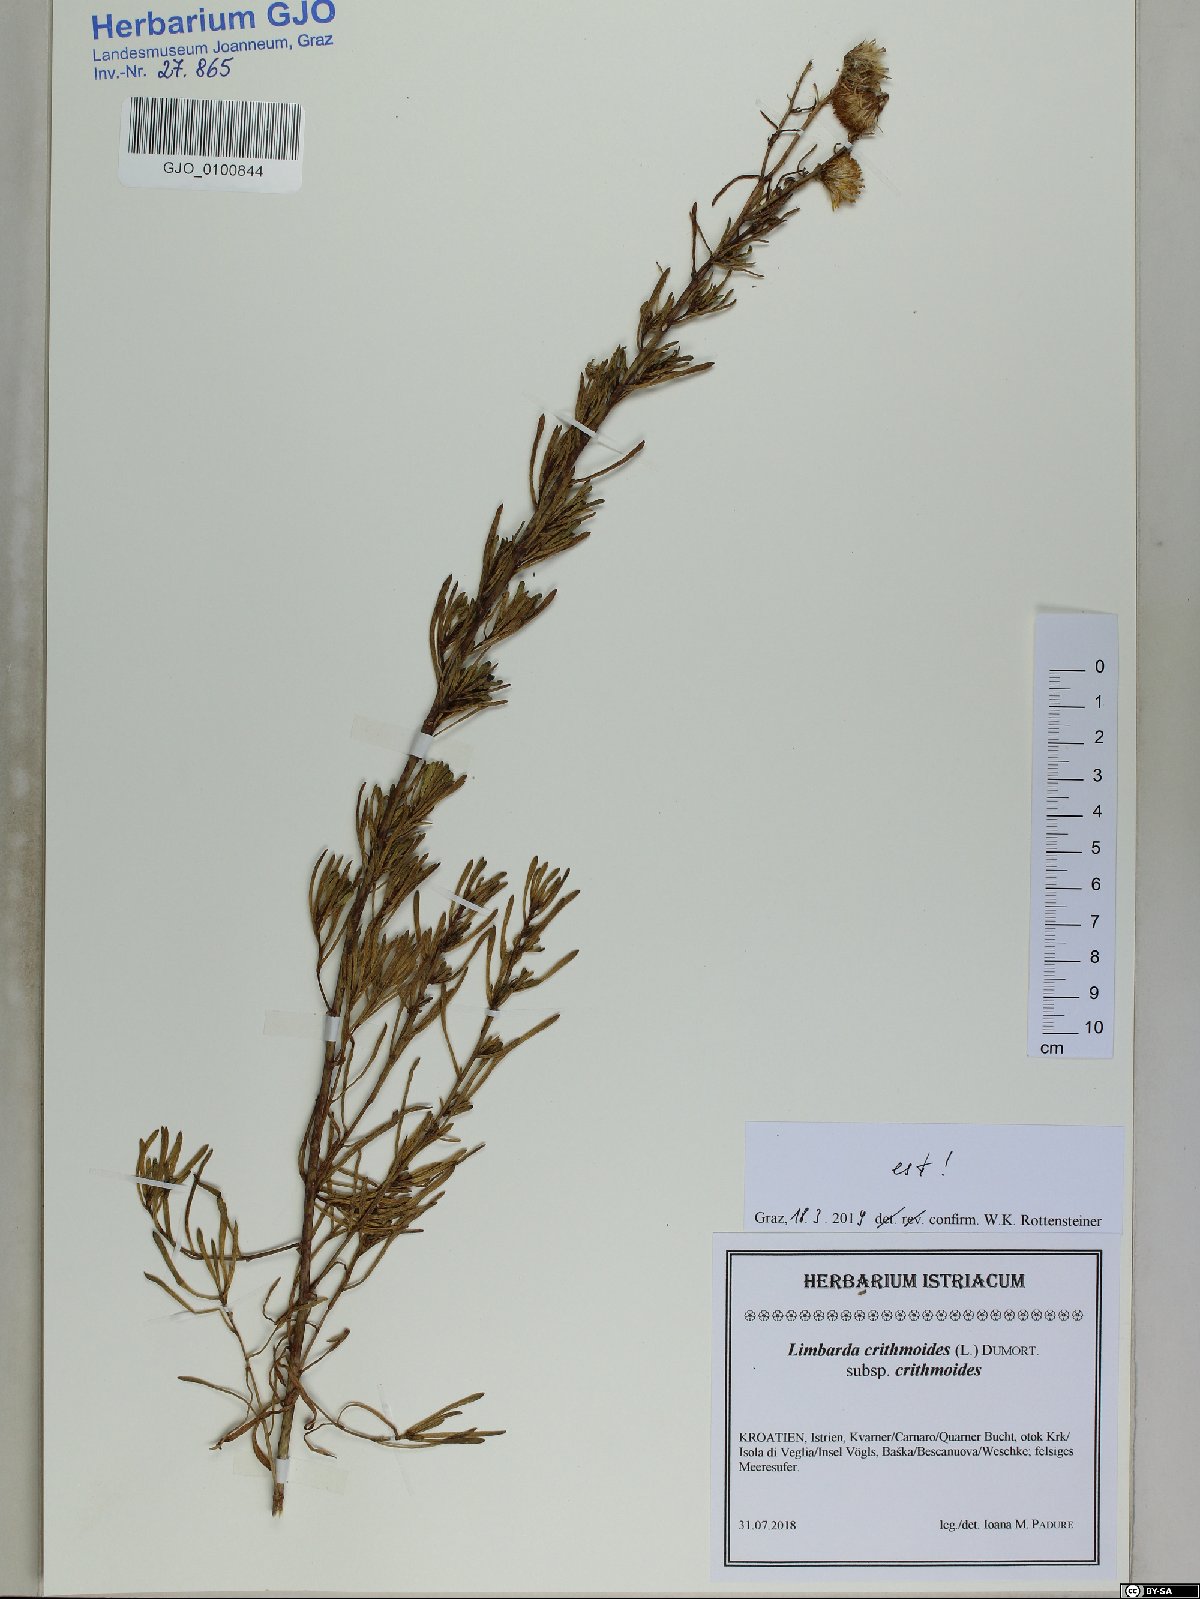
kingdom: Plantae
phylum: Tracheophyta
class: Magnoliopsida
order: Asterales
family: Asteraceae
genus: Limbarda
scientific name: Limbarda crithmoides
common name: Golden samphire
